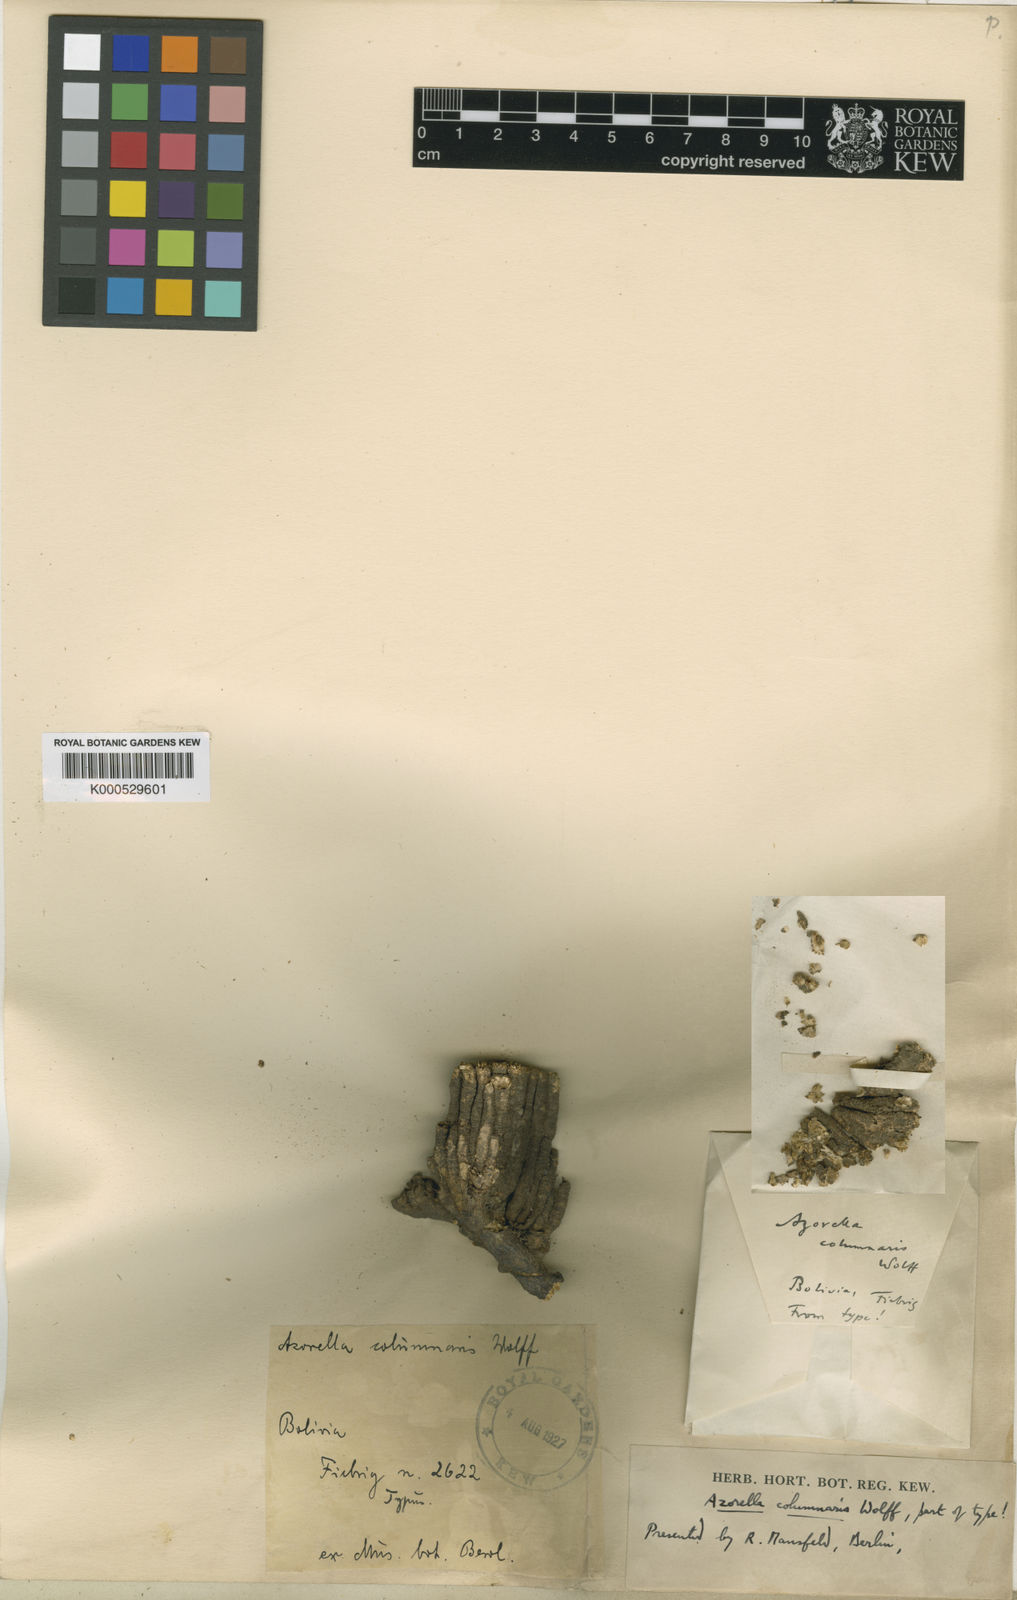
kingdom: Plantae
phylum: Tracheophyta
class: Magnoliopsida
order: Apiales
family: Apiaceae
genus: Azorella
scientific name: Azorella compacta
